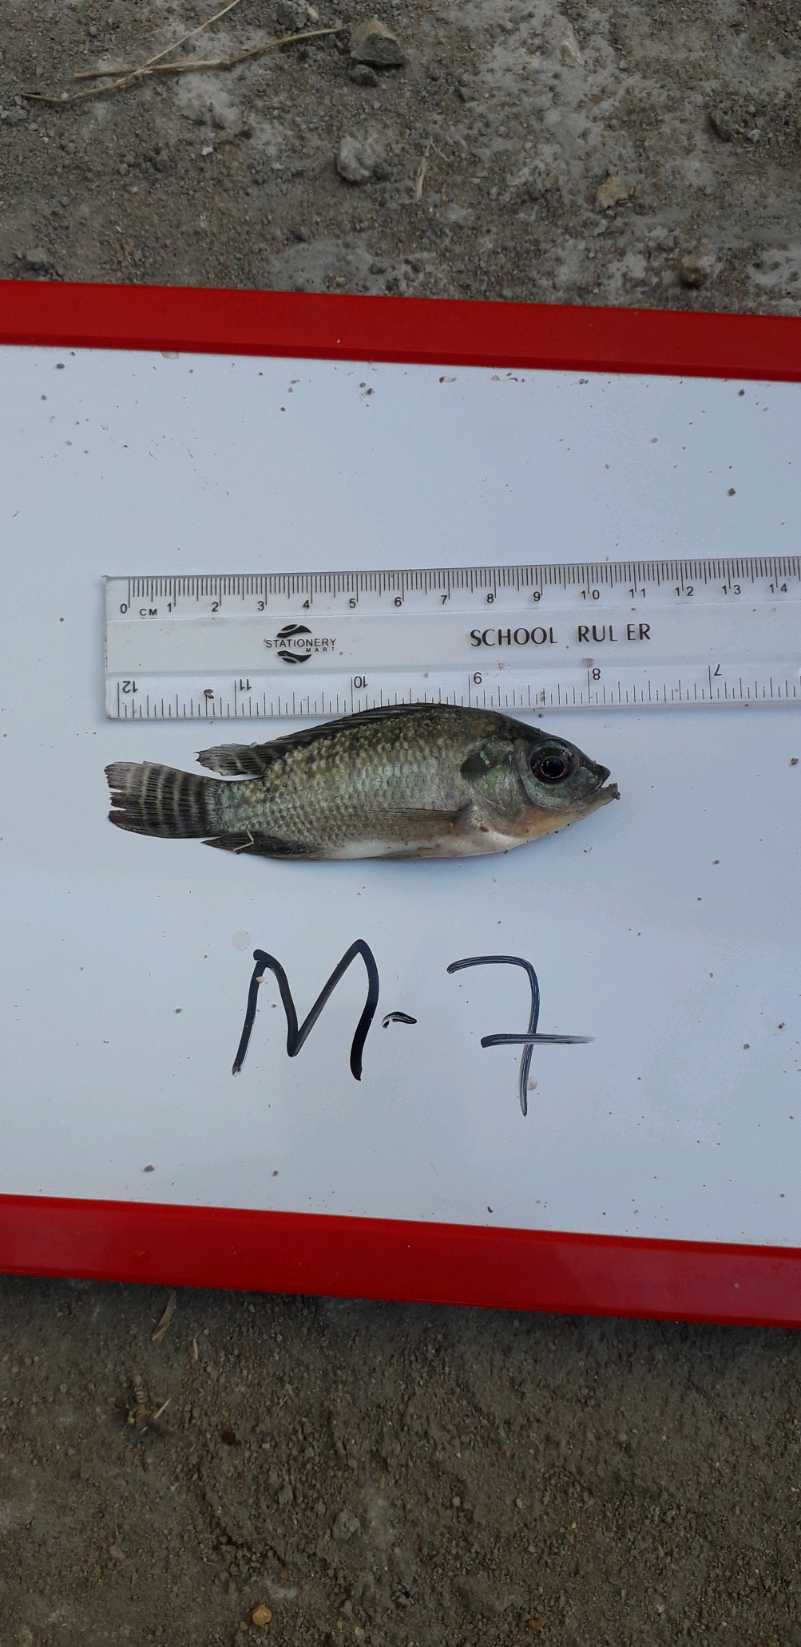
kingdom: Animalia
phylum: Chordata
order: Perciformes
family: Cichlidae
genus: Oreochromis
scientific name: Oreochromis niloticus
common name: Nile tilapia
